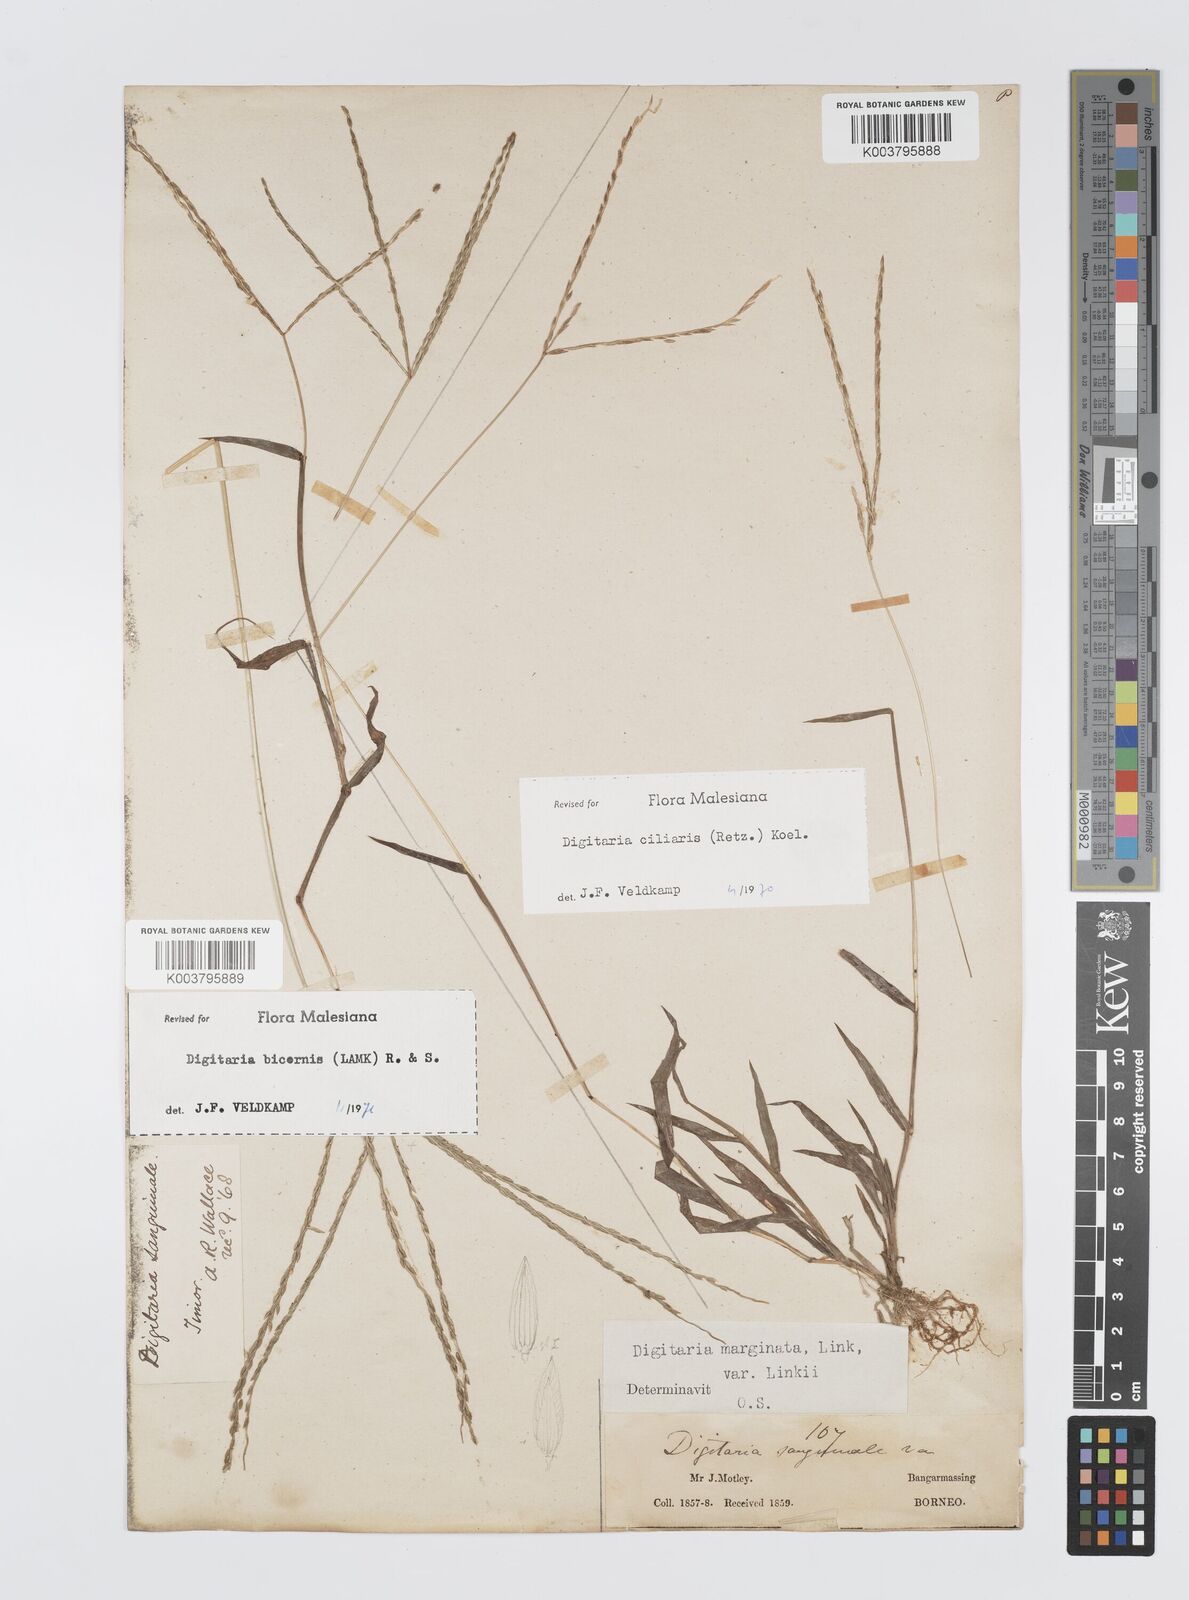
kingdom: Plantae
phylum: Tracheophyta
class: Liliopsida
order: Poales
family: Poaceae
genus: Digitaria
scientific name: Digitaria ciliaris
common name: Tropical finger-grass
